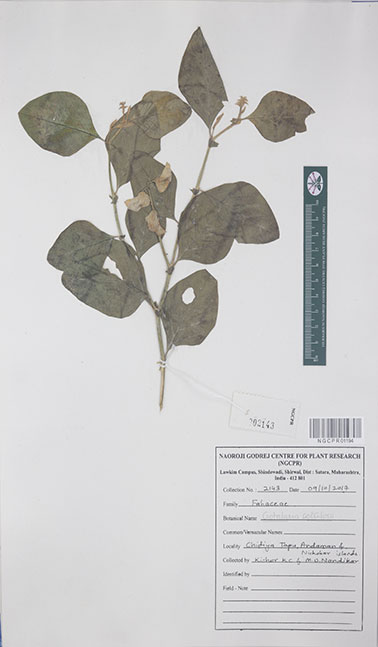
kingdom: Plantae
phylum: Tracheophyta
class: Magnoliopsida
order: Fabales
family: Fabaceae
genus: Crotolaria
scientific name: Crotolaria
